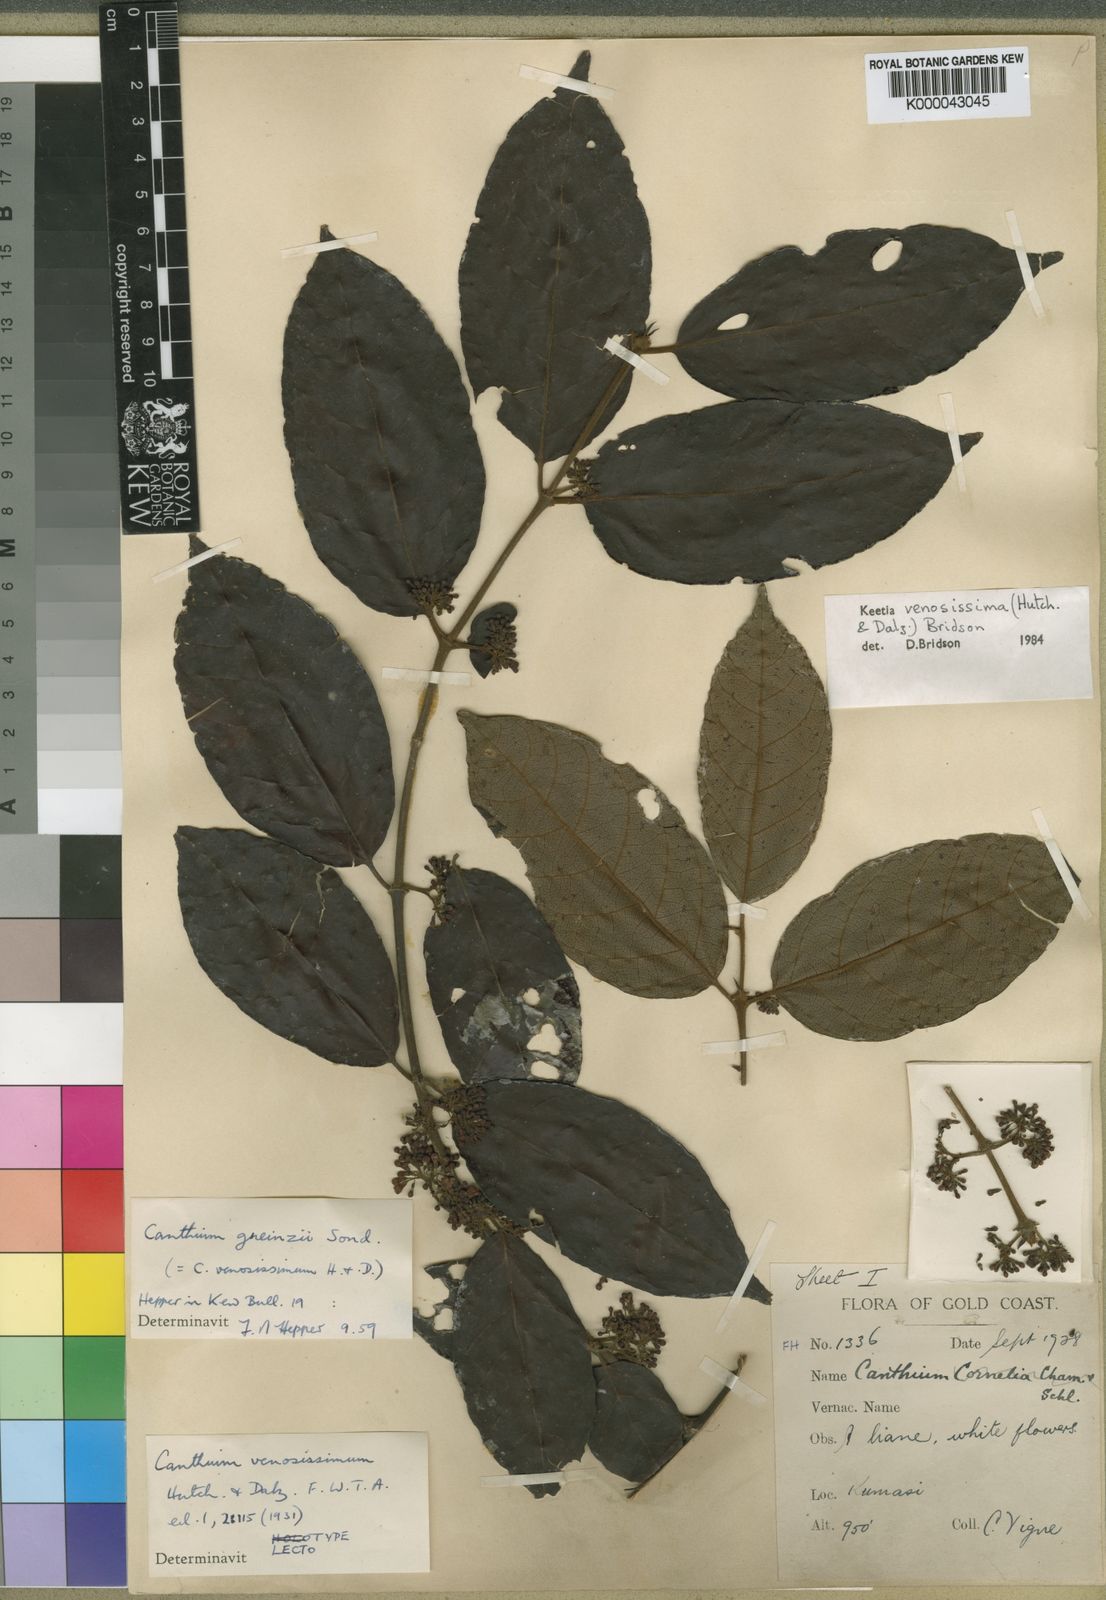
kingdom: Plantae
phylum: Tracheophyta
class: Magnoliopsida
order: Gentianales
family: Rubiaceae
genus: Keetia
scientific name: Keetia venosissima
